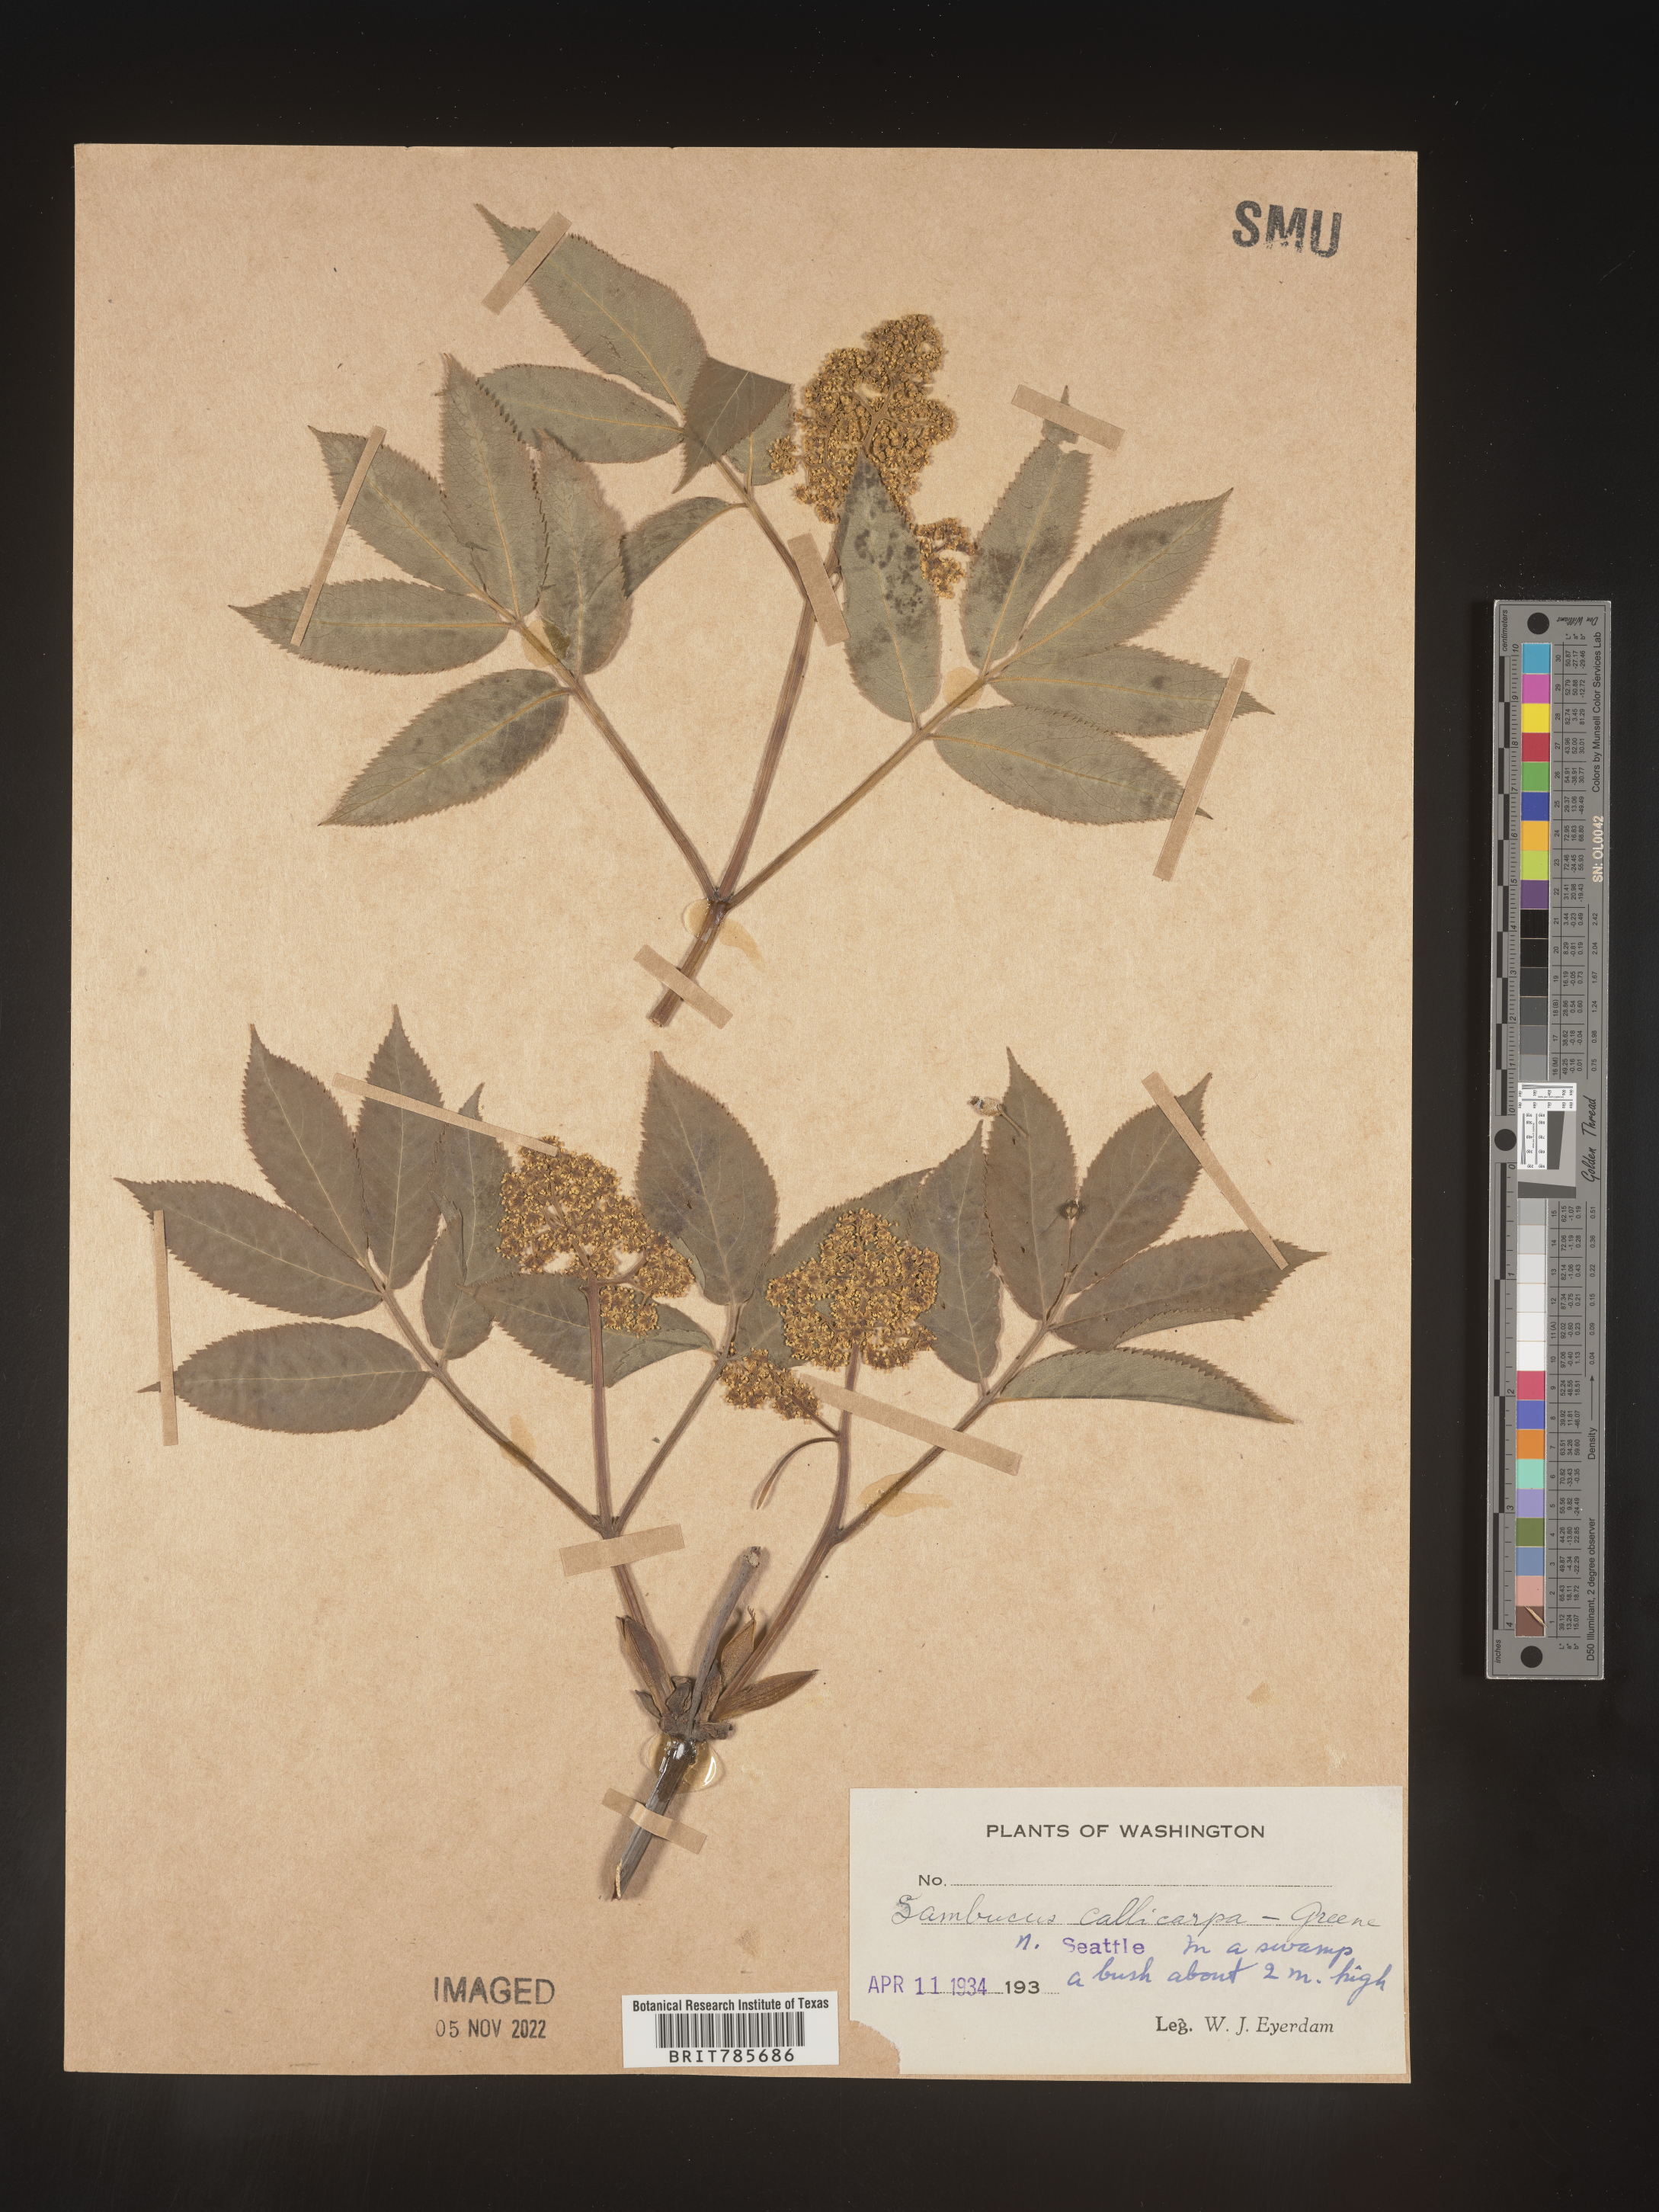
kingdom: Plantae
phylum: Tracheophyta
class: Magnoliopsida
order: Dipsacales
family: Viburnaceae
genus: Sambucus
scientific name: Sambucus racemosa
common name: Red-berried elder
